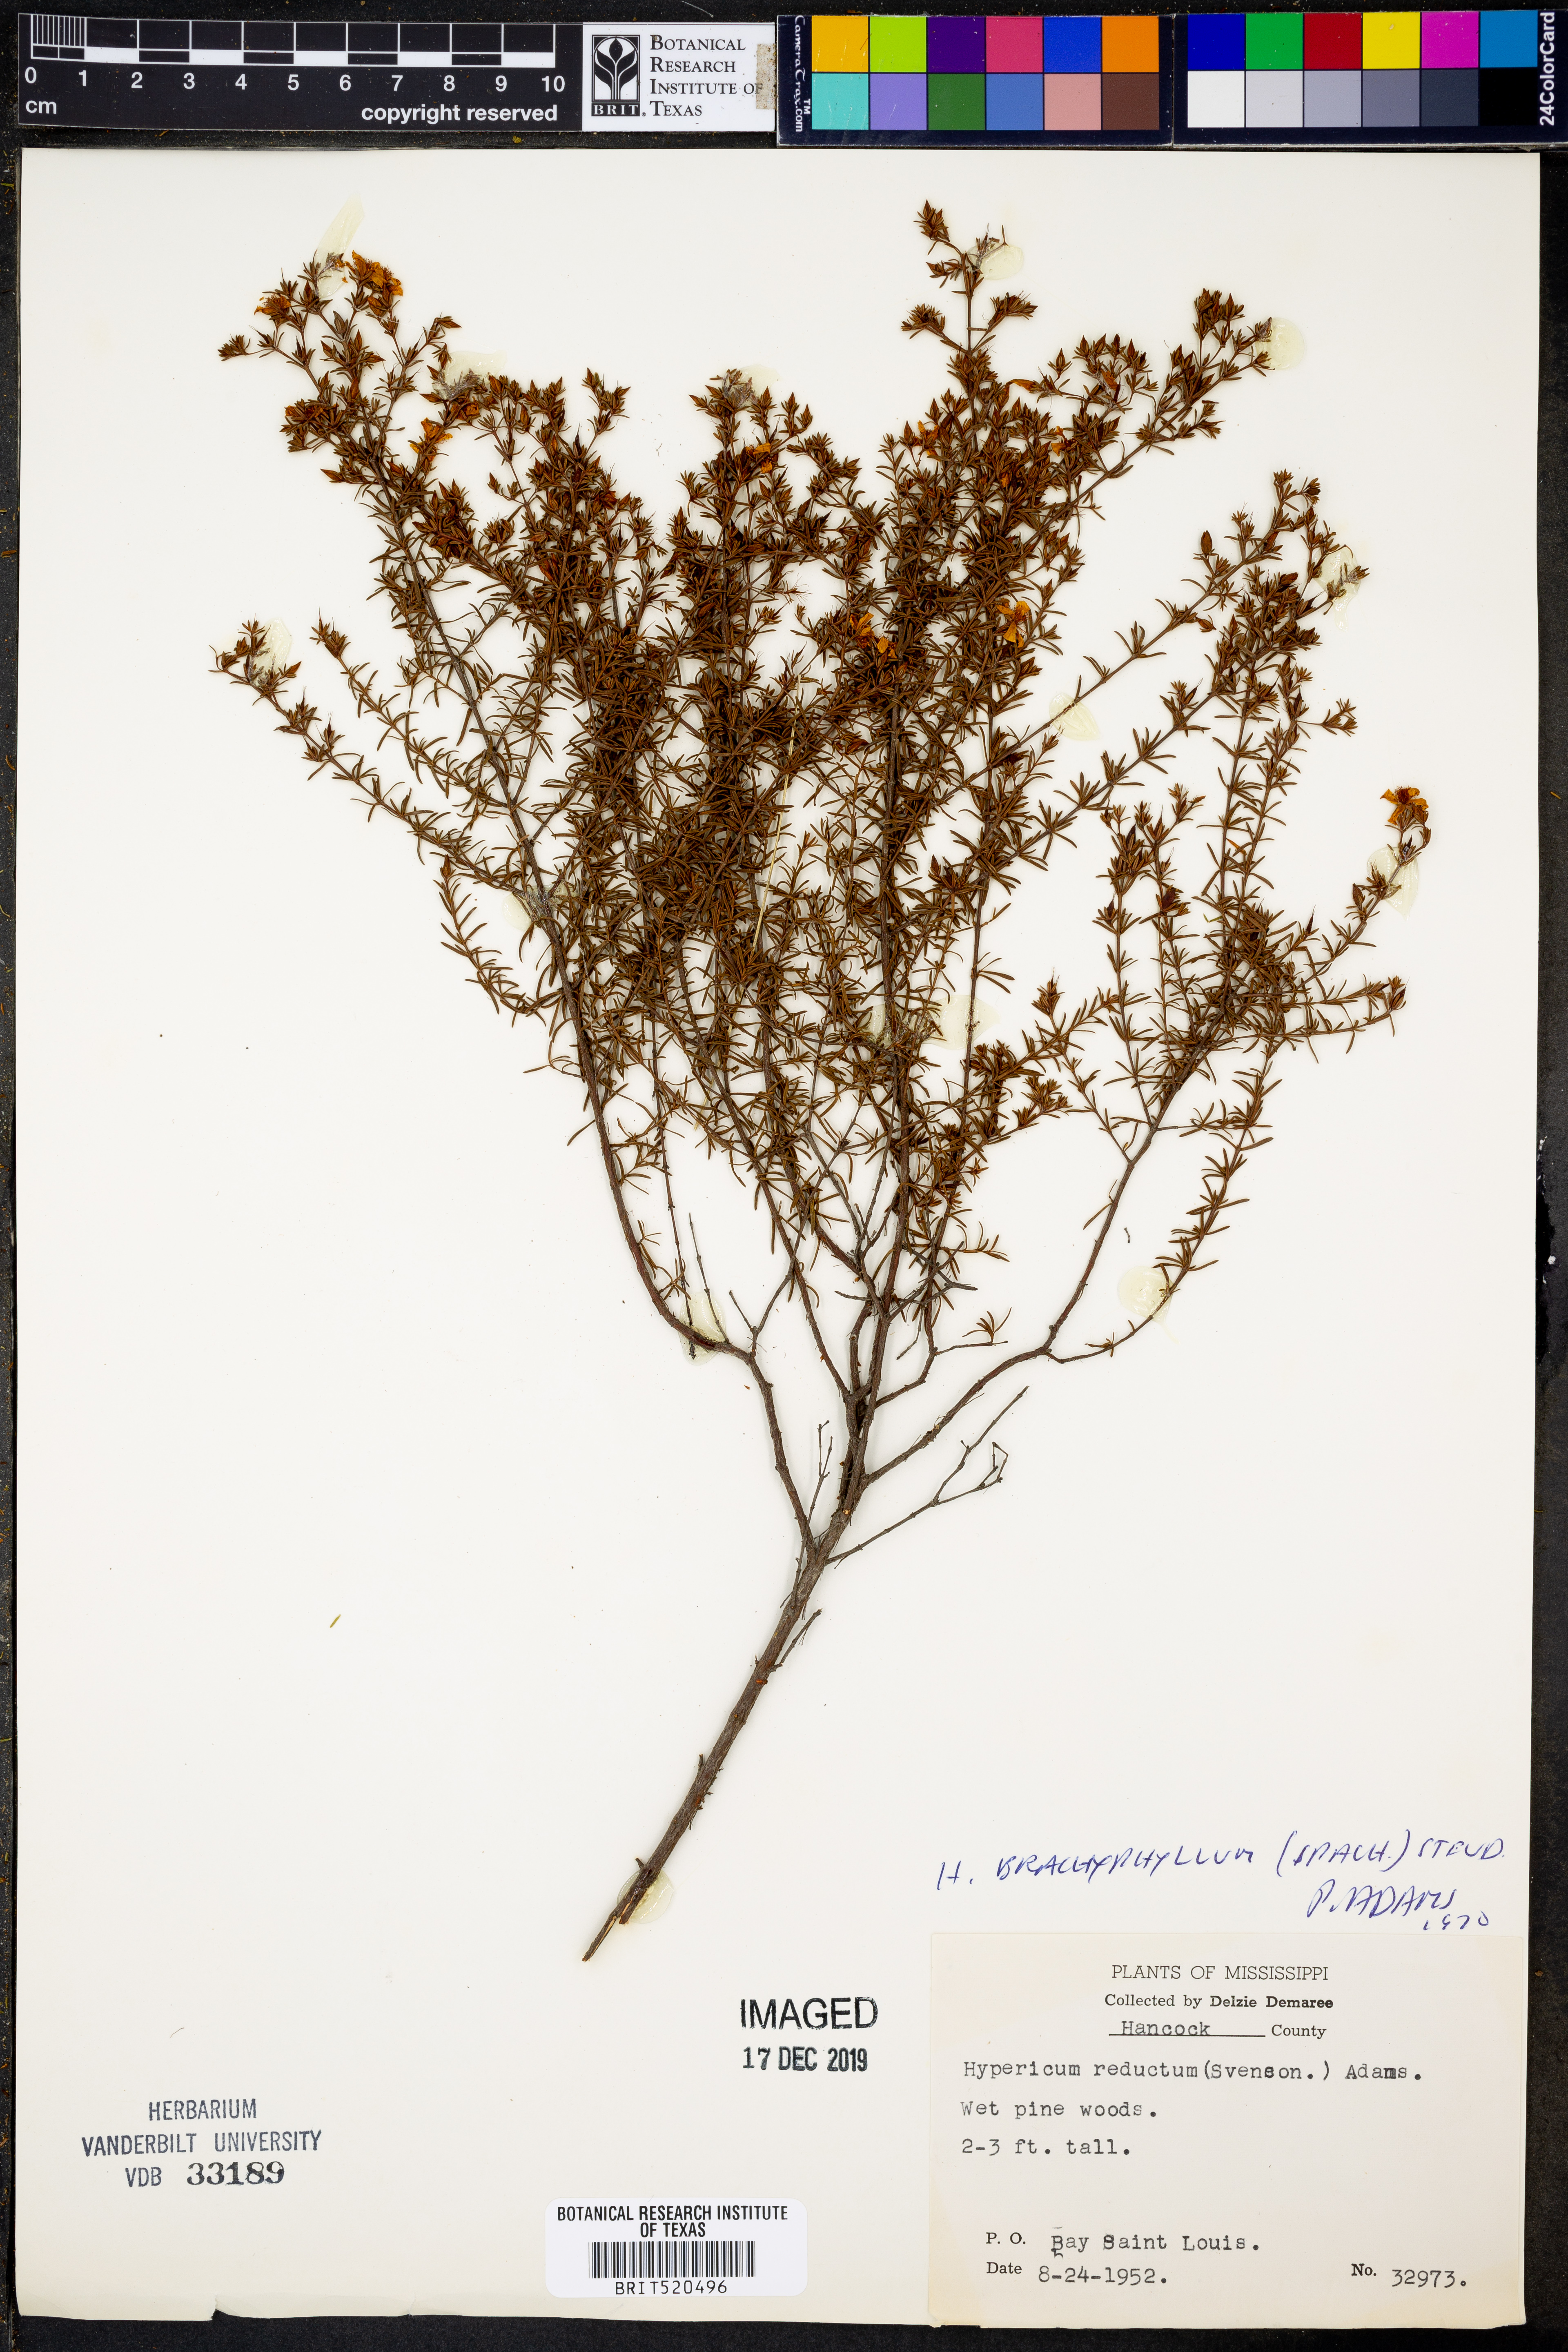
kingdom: Plantae
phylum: Tracheophyta
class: Magnoliopsida
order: Malpighiales
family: Hypericaceae
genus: Hypericum
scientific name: Hypericum brachyphyllum
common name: Coastal plain st. john's-wort
